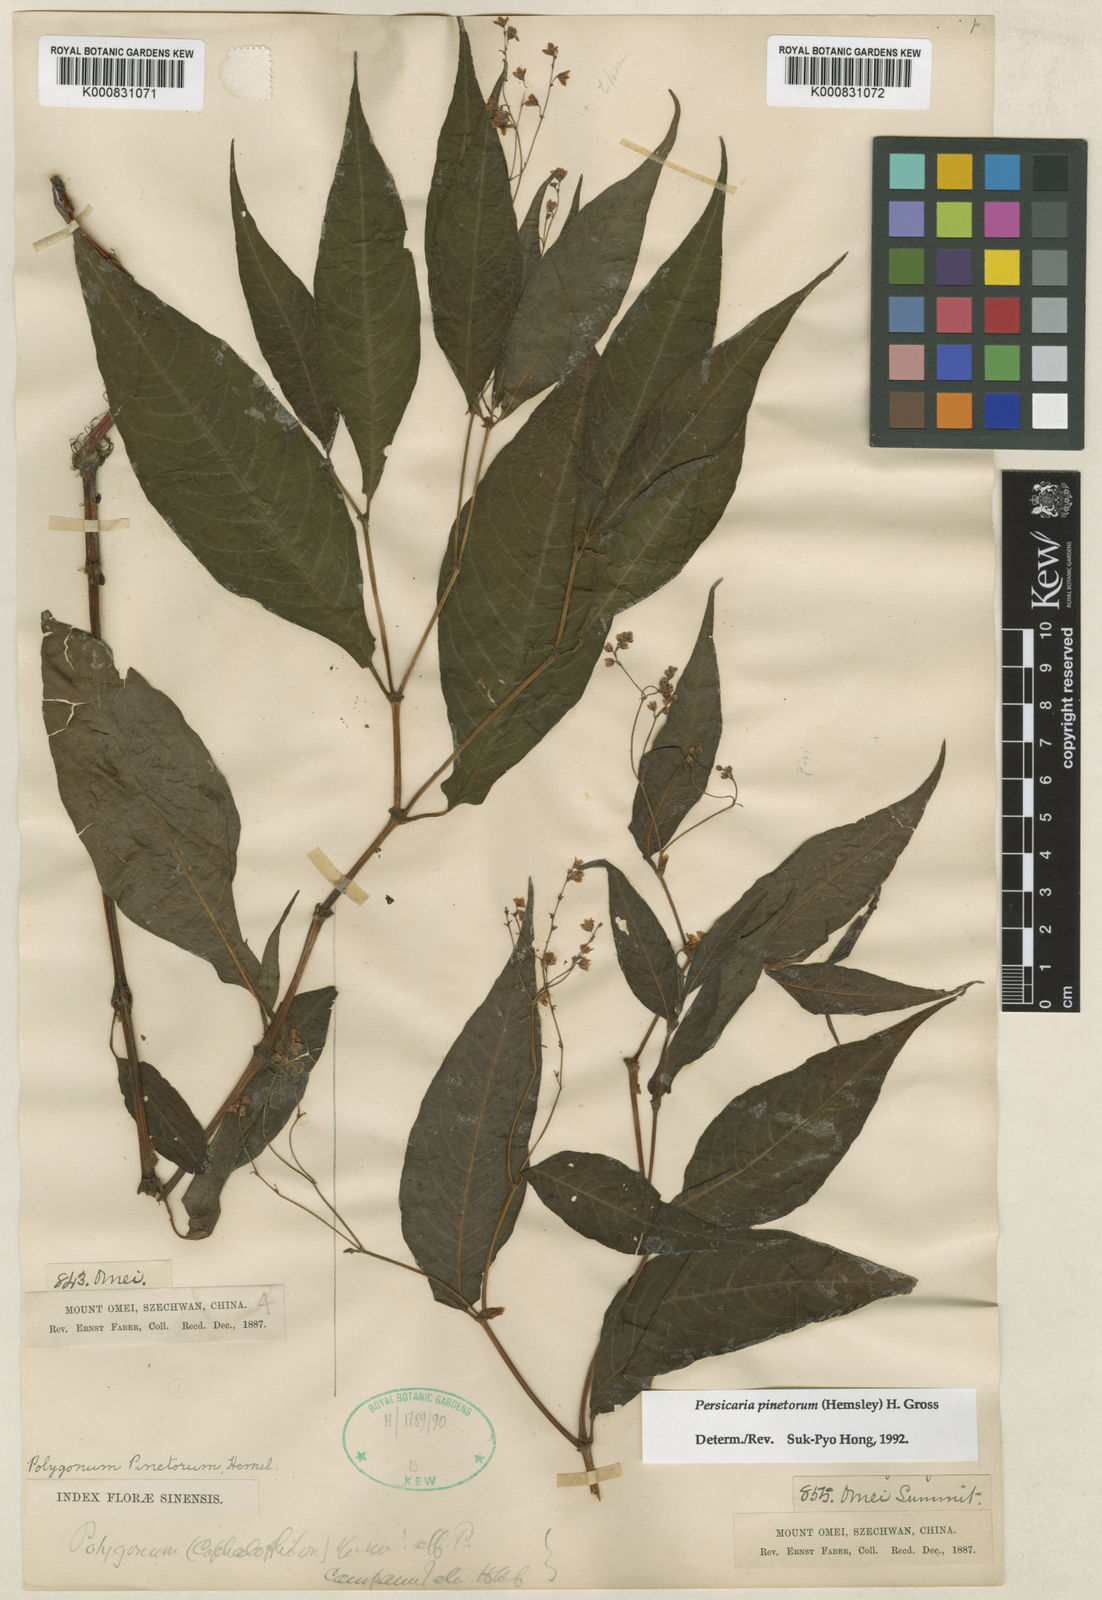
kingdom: Plantae
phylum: Tracheophyta
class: Magnoliopsida
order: Caryophyllales
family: Polygonaceae
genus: Persicaria
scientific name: Persicaria pinetora
